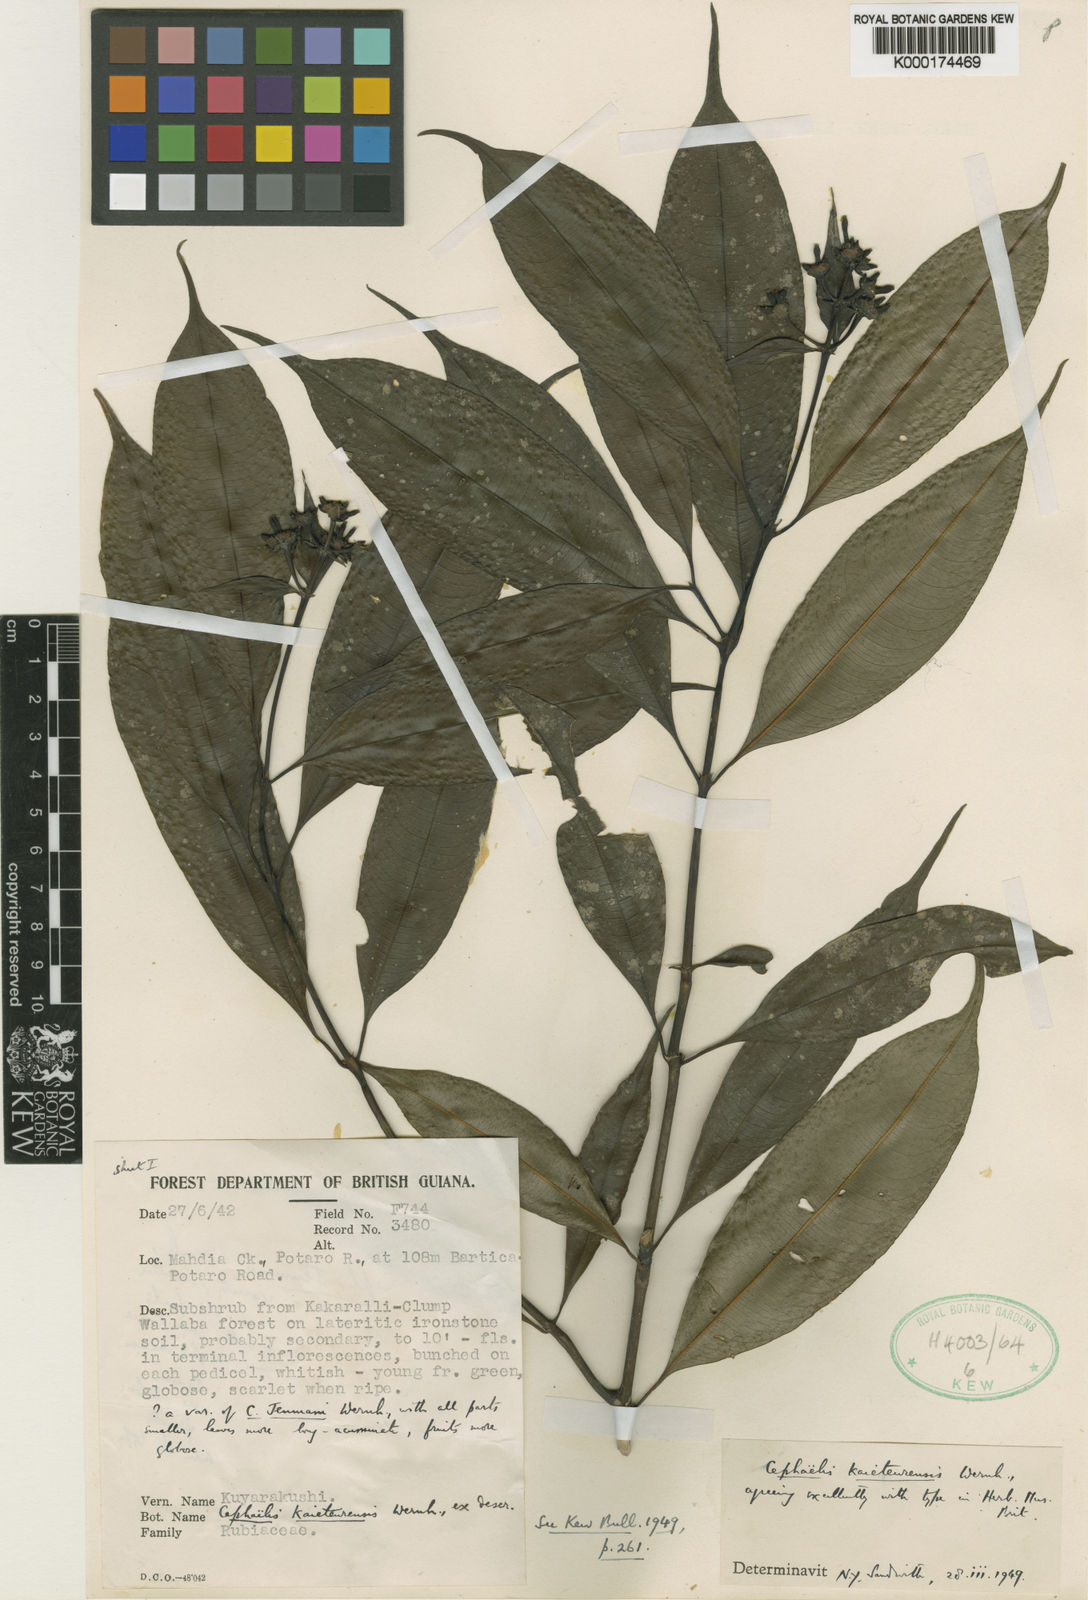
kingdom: Plantae
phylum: Tracheophyta
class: Magnoliopsida
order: Gentianales
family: Rubiaceae
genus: Palicourea
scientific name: Palicourea kaieteurensis
